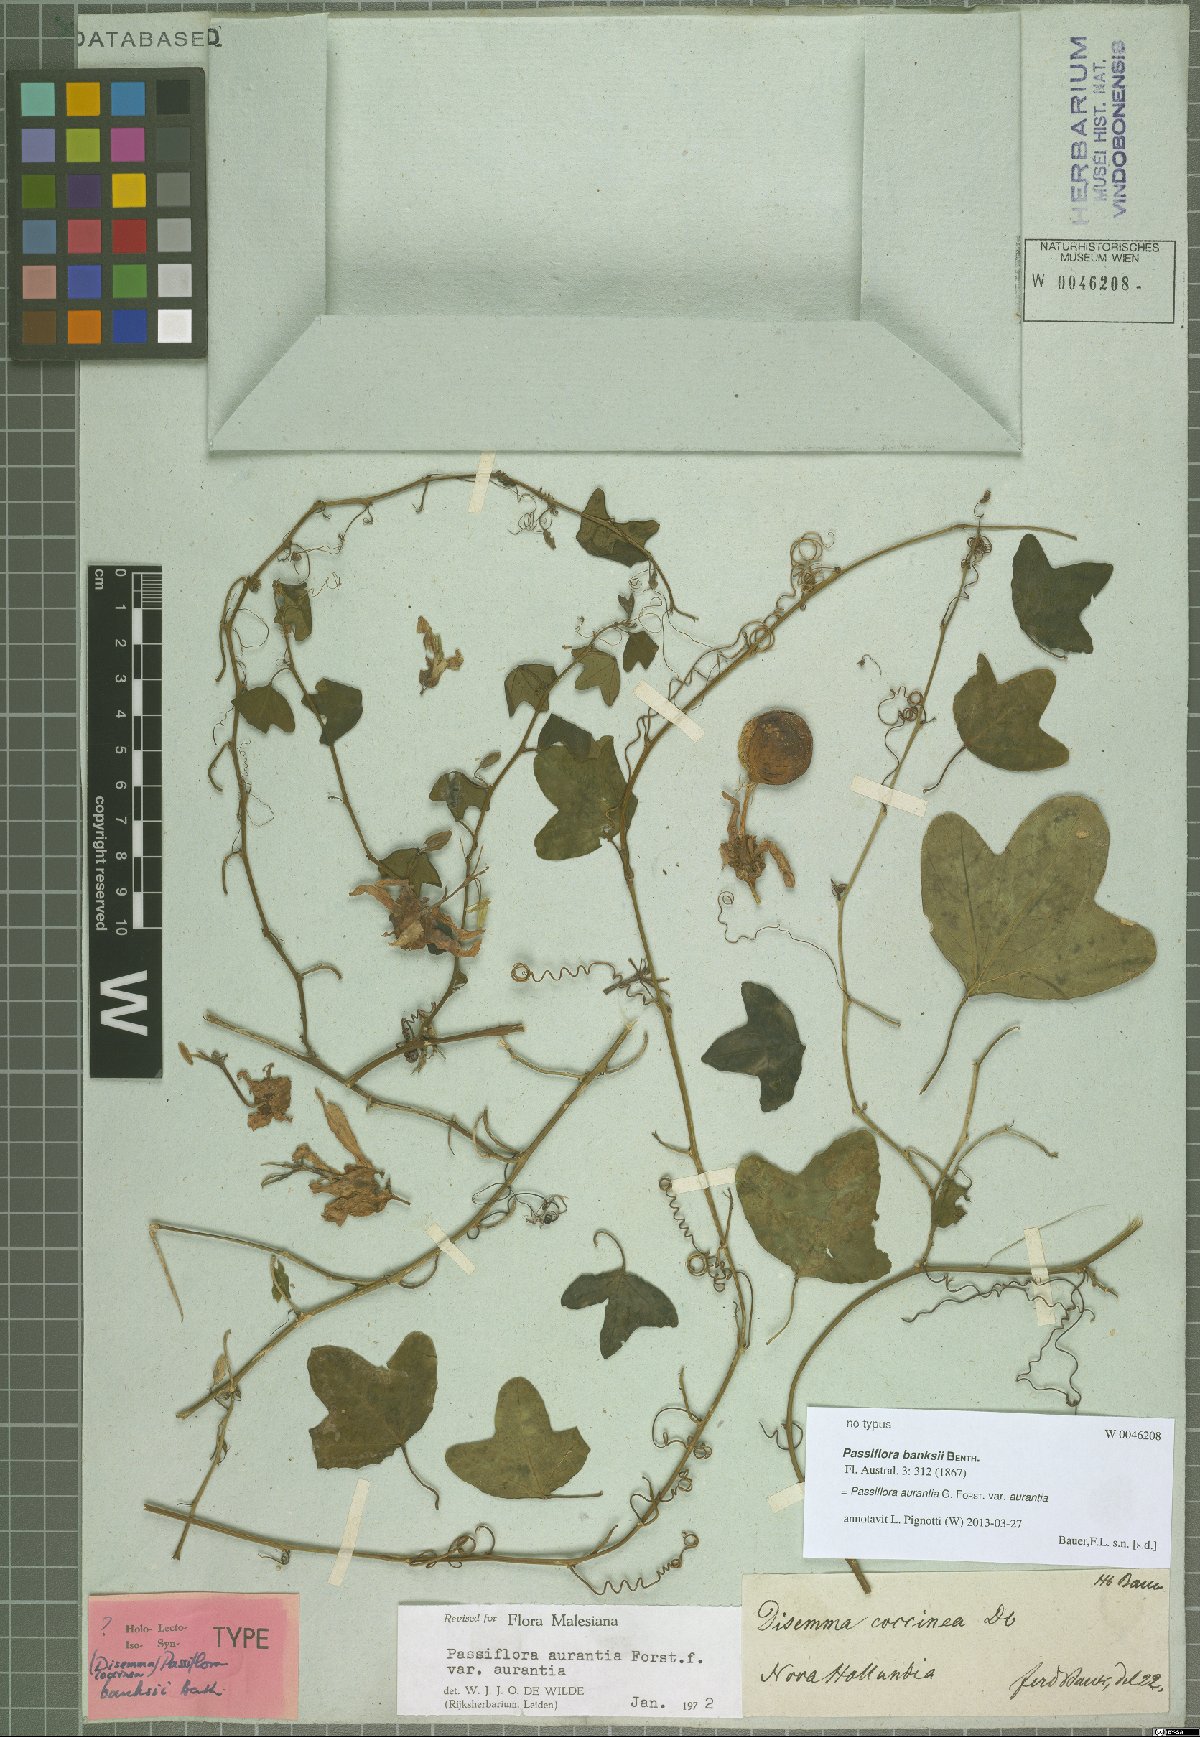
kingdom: Plantae
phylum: Tracheophyta
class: Magnoliopsida
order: Malpighiales
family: Passifloraceae
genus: Passiflora
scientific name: Passiflora aurantia
